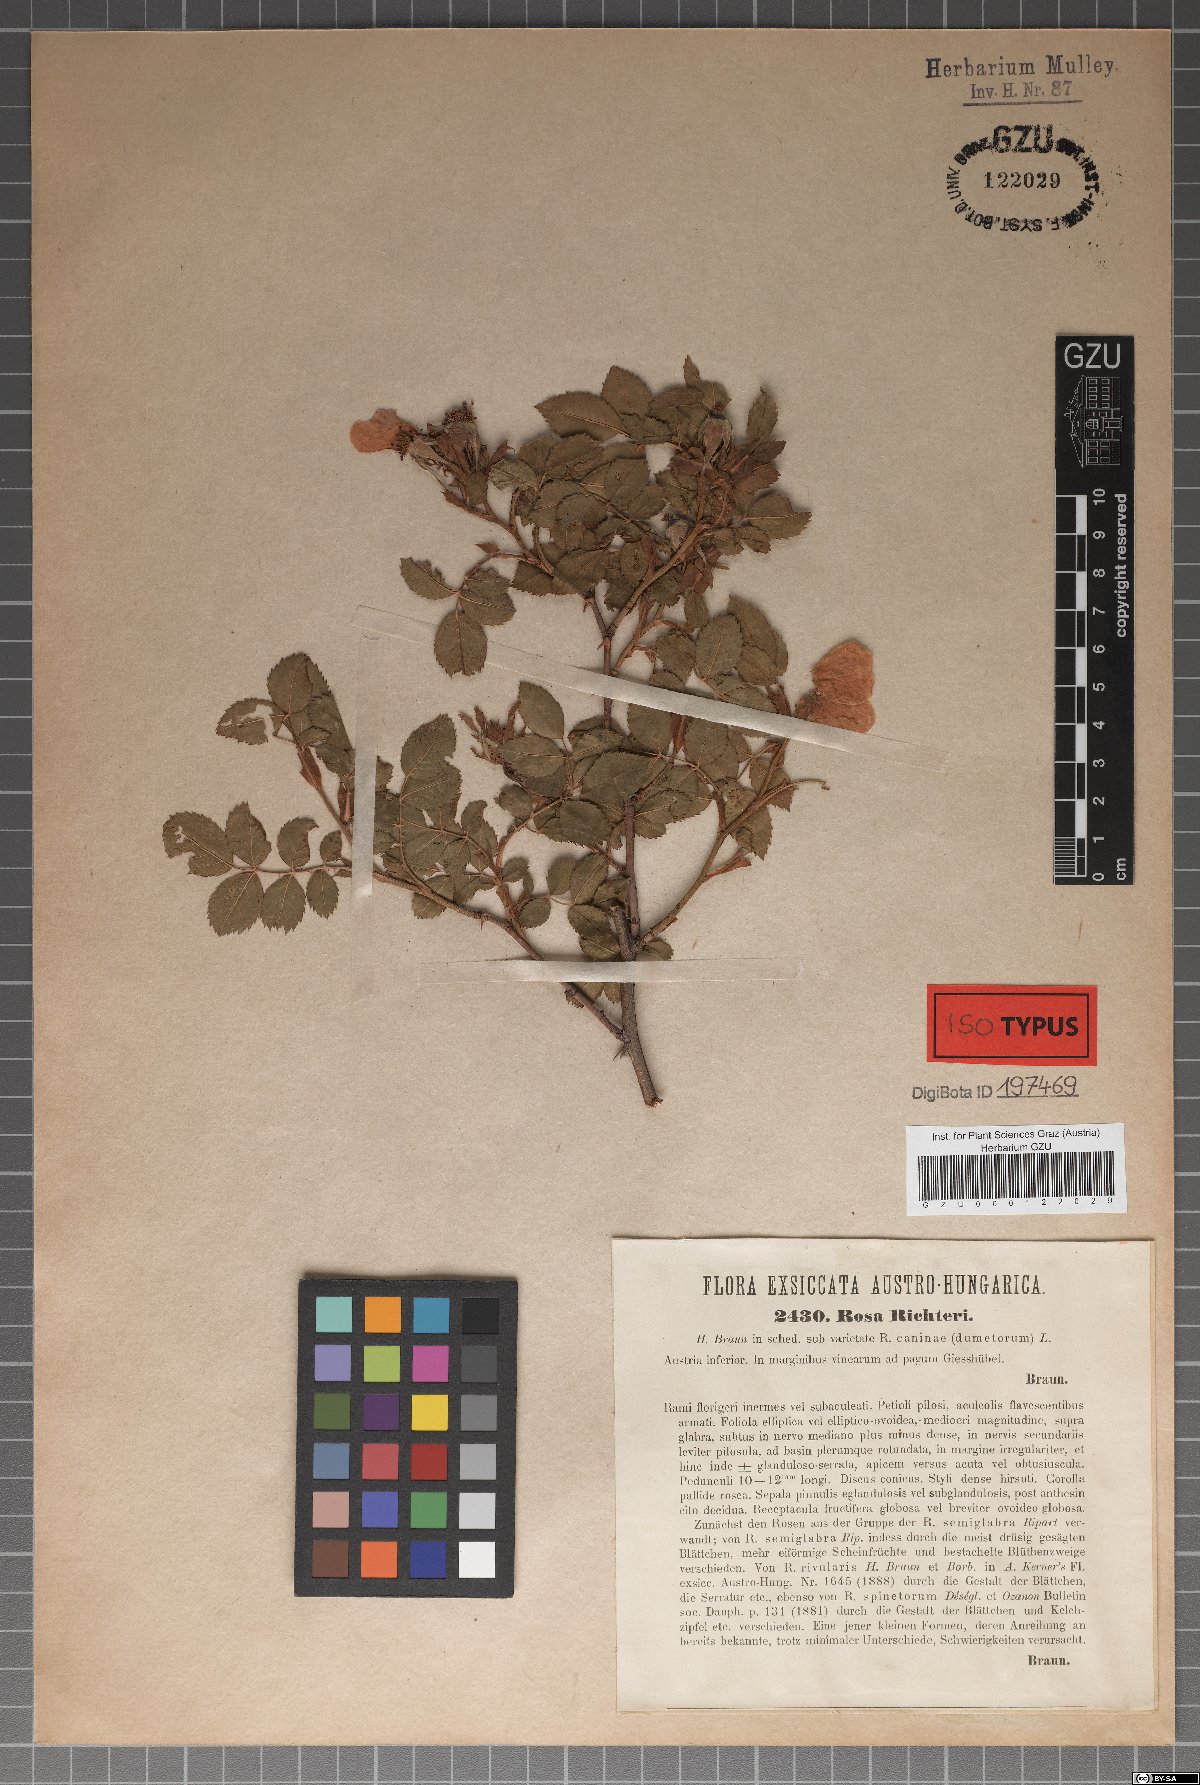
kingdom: Plantae
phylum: Tracheophyta
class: Magnoliopsida
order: Rosales
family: Rosaceae
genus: Rosa
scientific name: Rosa corymbifera
